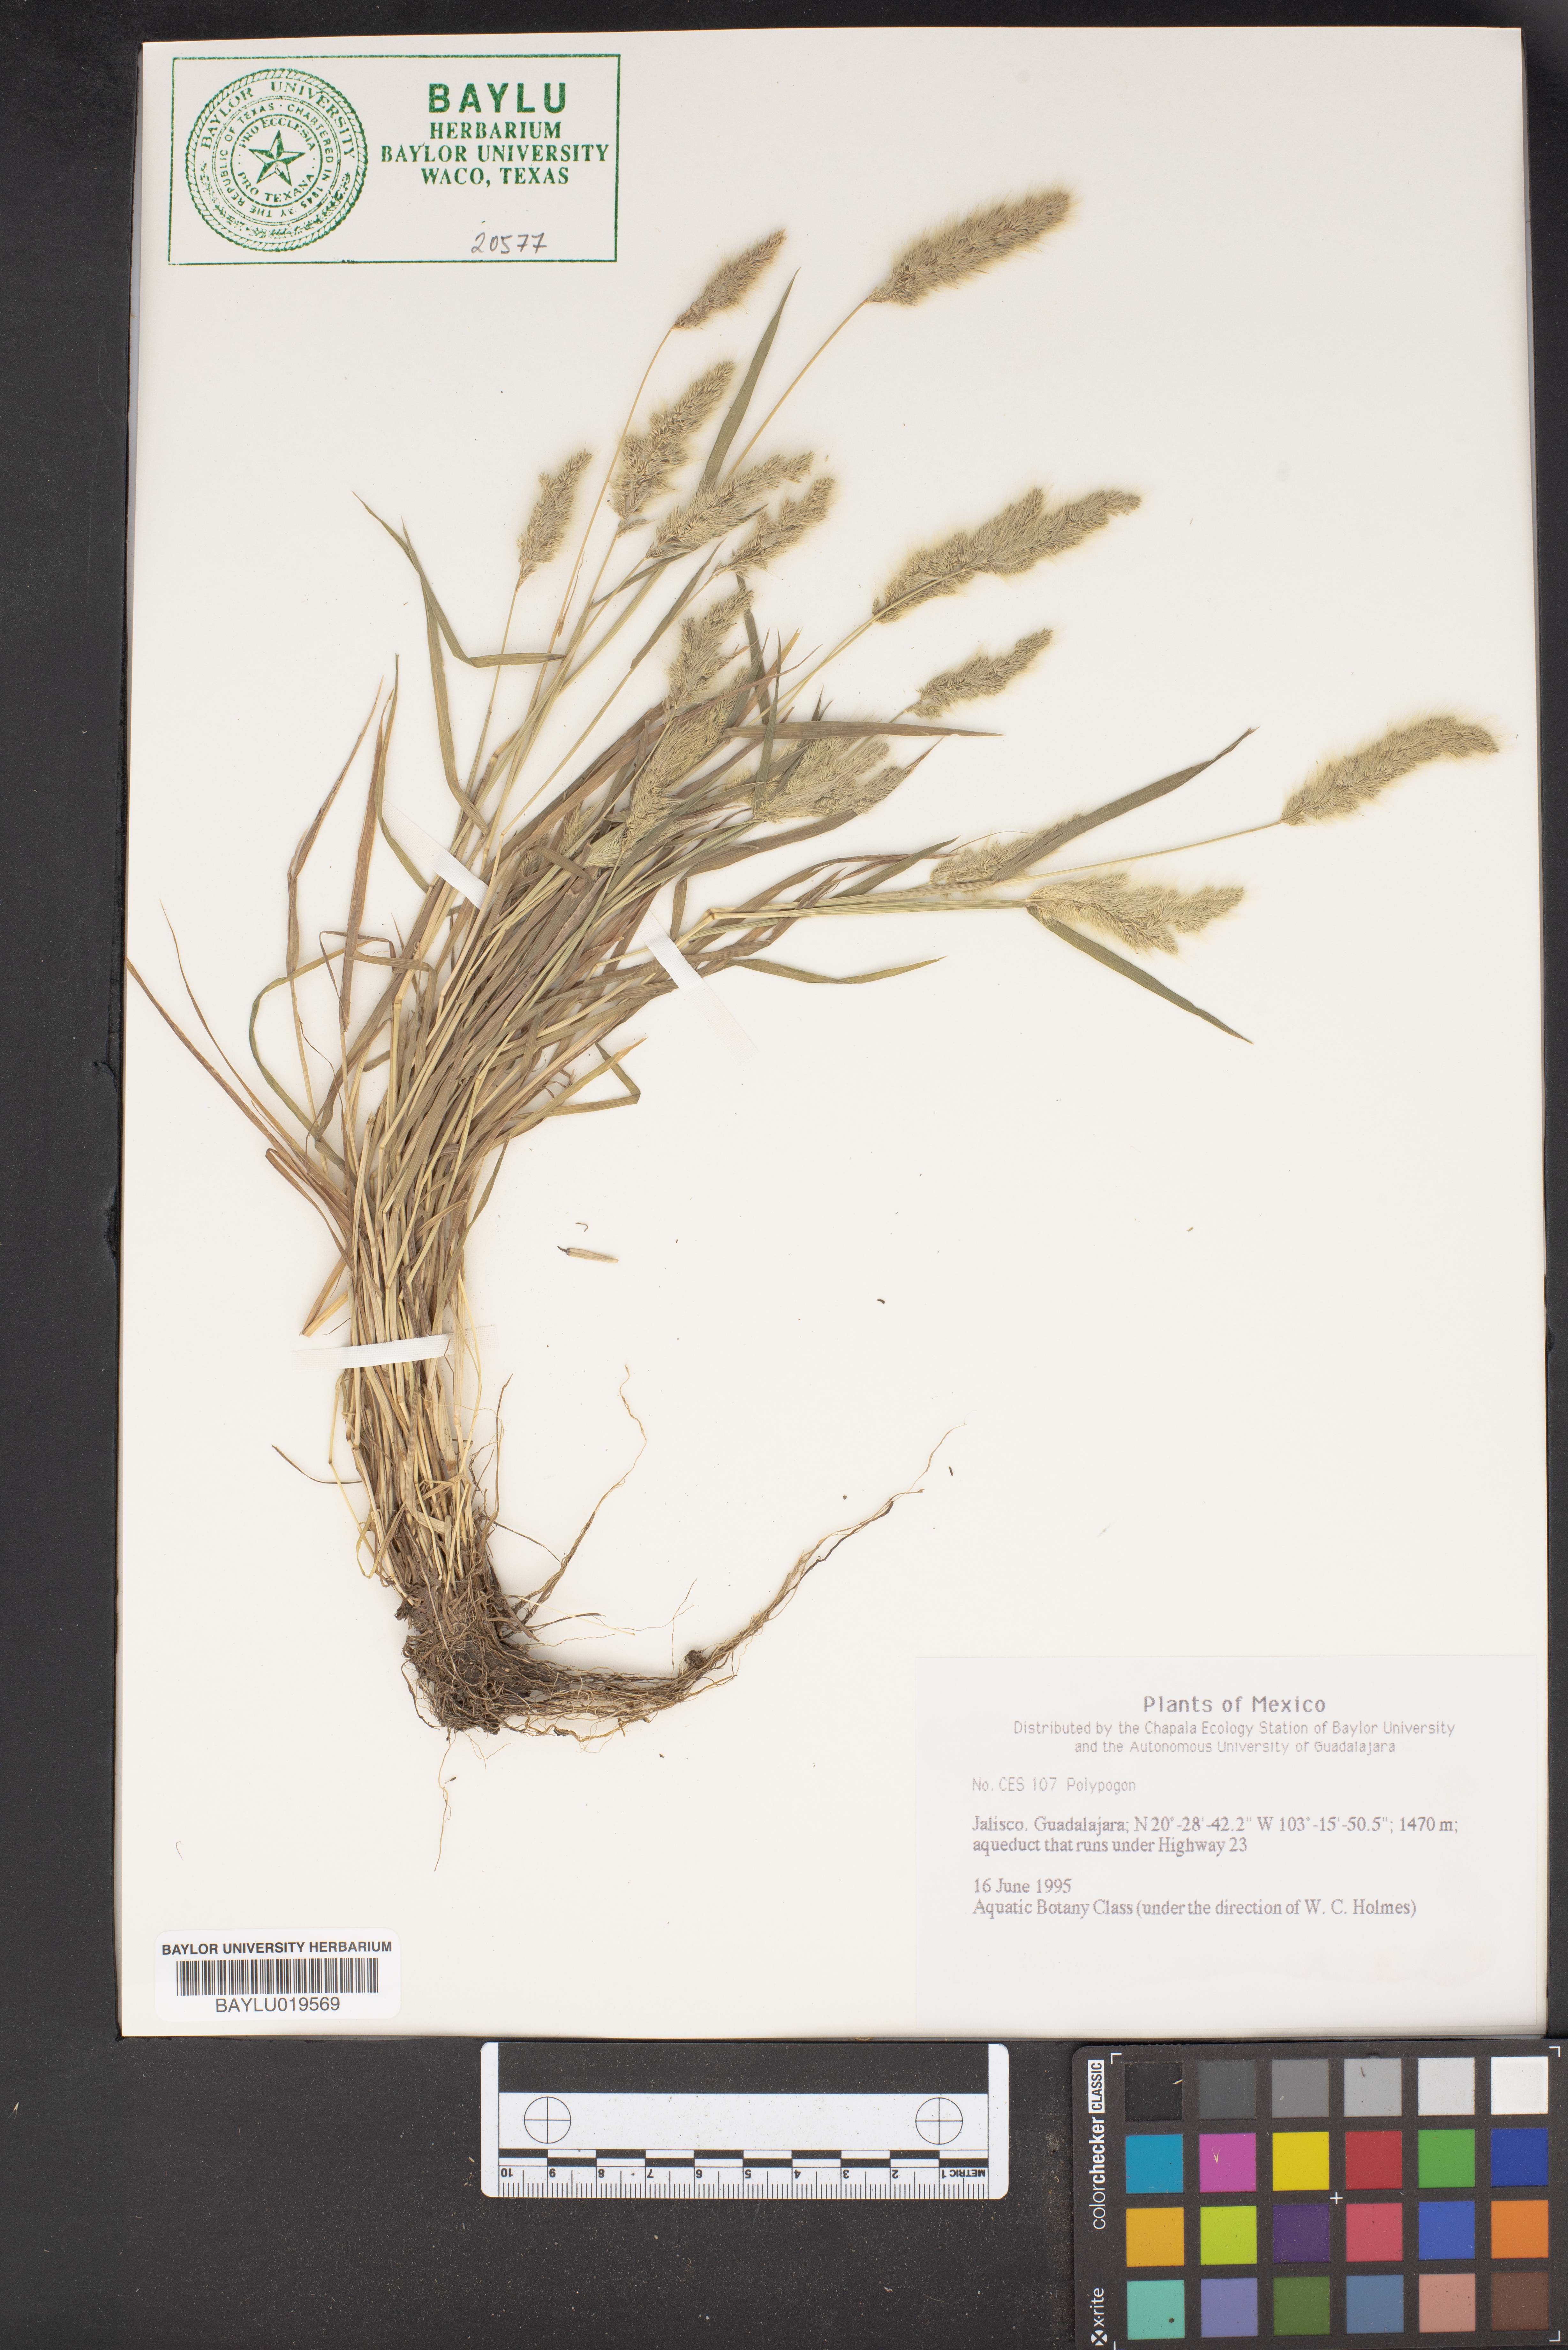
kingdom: Plantae
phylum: Tracheophyta
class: Liliopsida
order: Poales
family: Poaceae
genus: Polypogon
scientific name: Polypogon
